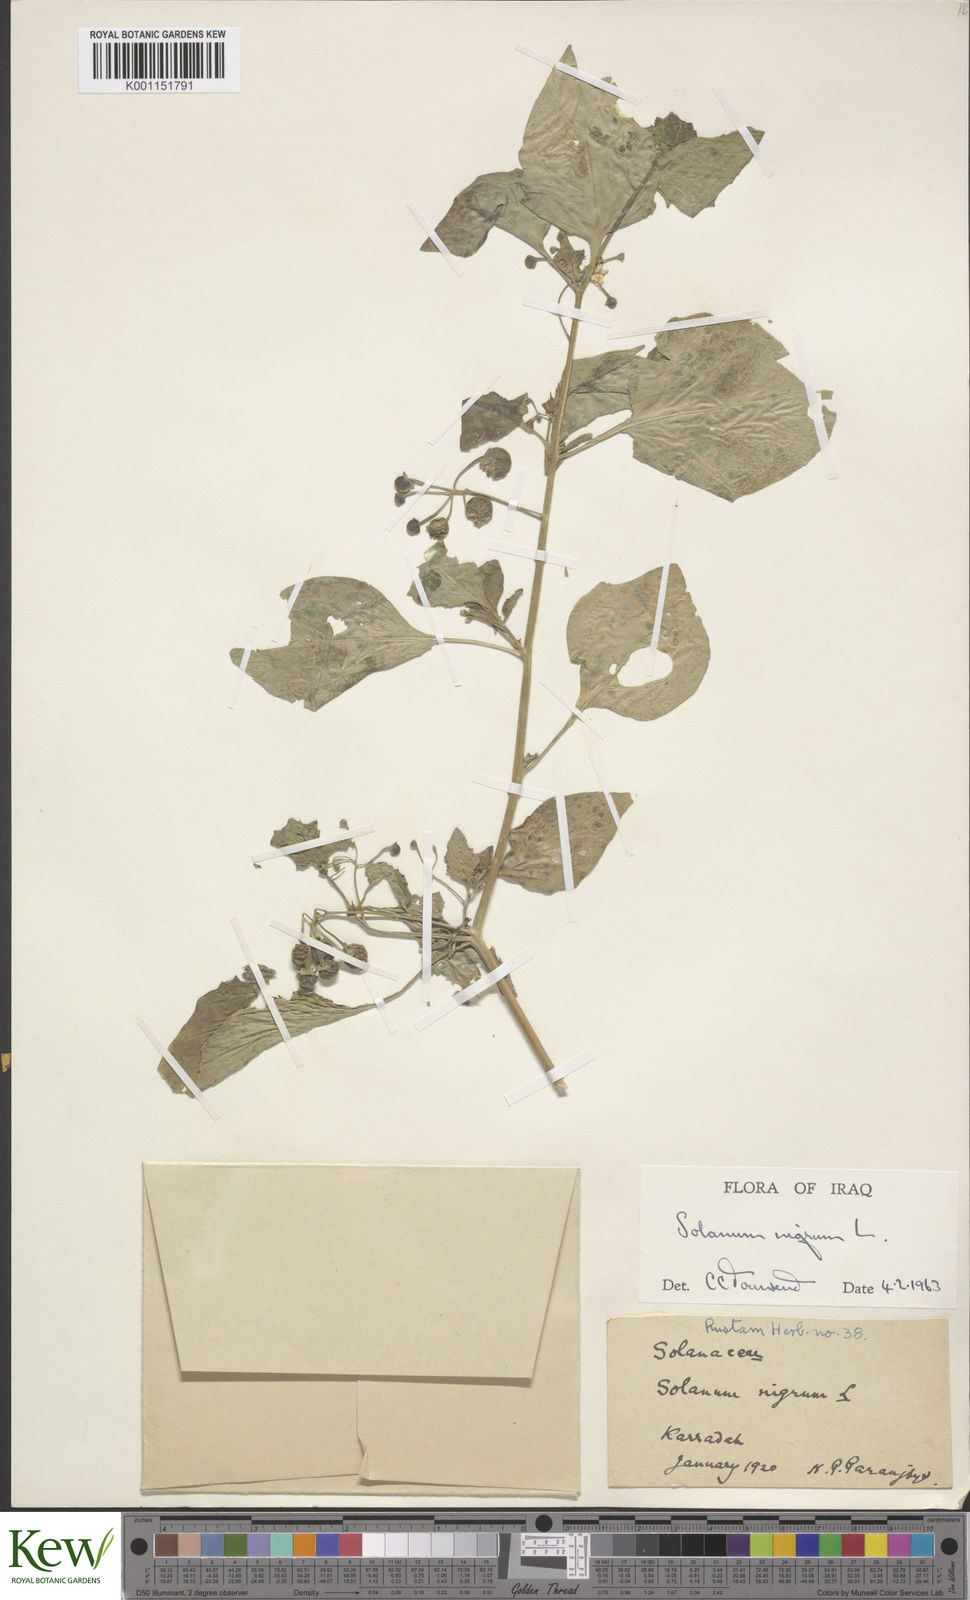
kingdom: Plantae
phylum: Tracheophyta
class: Magnoliopsida
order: Solanales
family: Solanaceae
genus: Solanum
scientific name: Solanum nigrum
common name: Black nightshade
